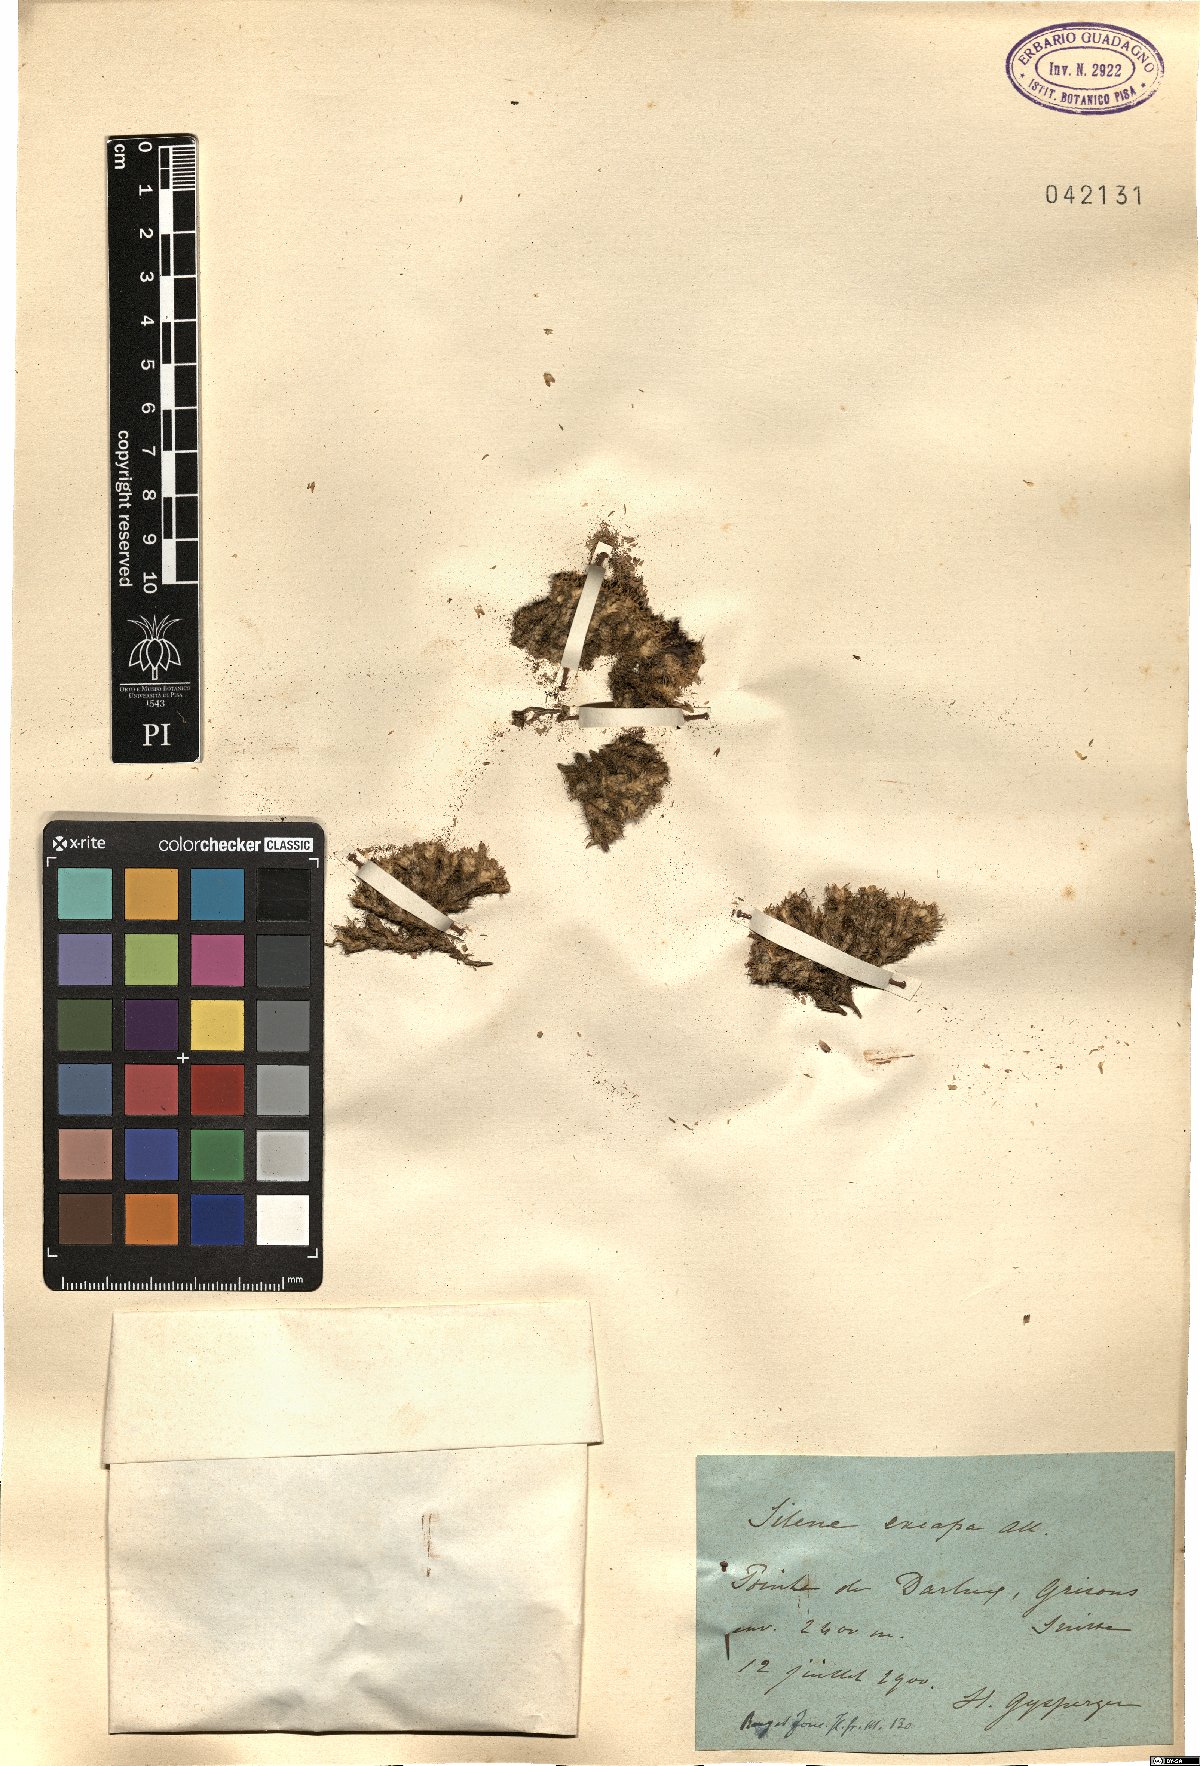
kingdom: Plantae
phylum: Tracheophyta
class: Magnoliopsida
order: Caryophyllales
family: Caryophyllaceae
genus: Silene
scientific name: Silene acaulis
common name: Moss campion
